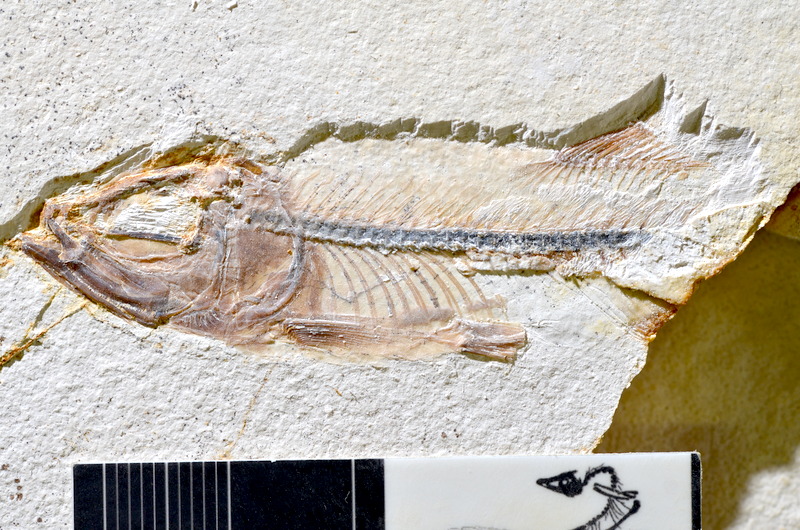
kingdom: Animalia
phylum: Chordata
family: Ascalaboidae
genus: Ebertichthys
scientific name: Ebertichthys ettlingensis
